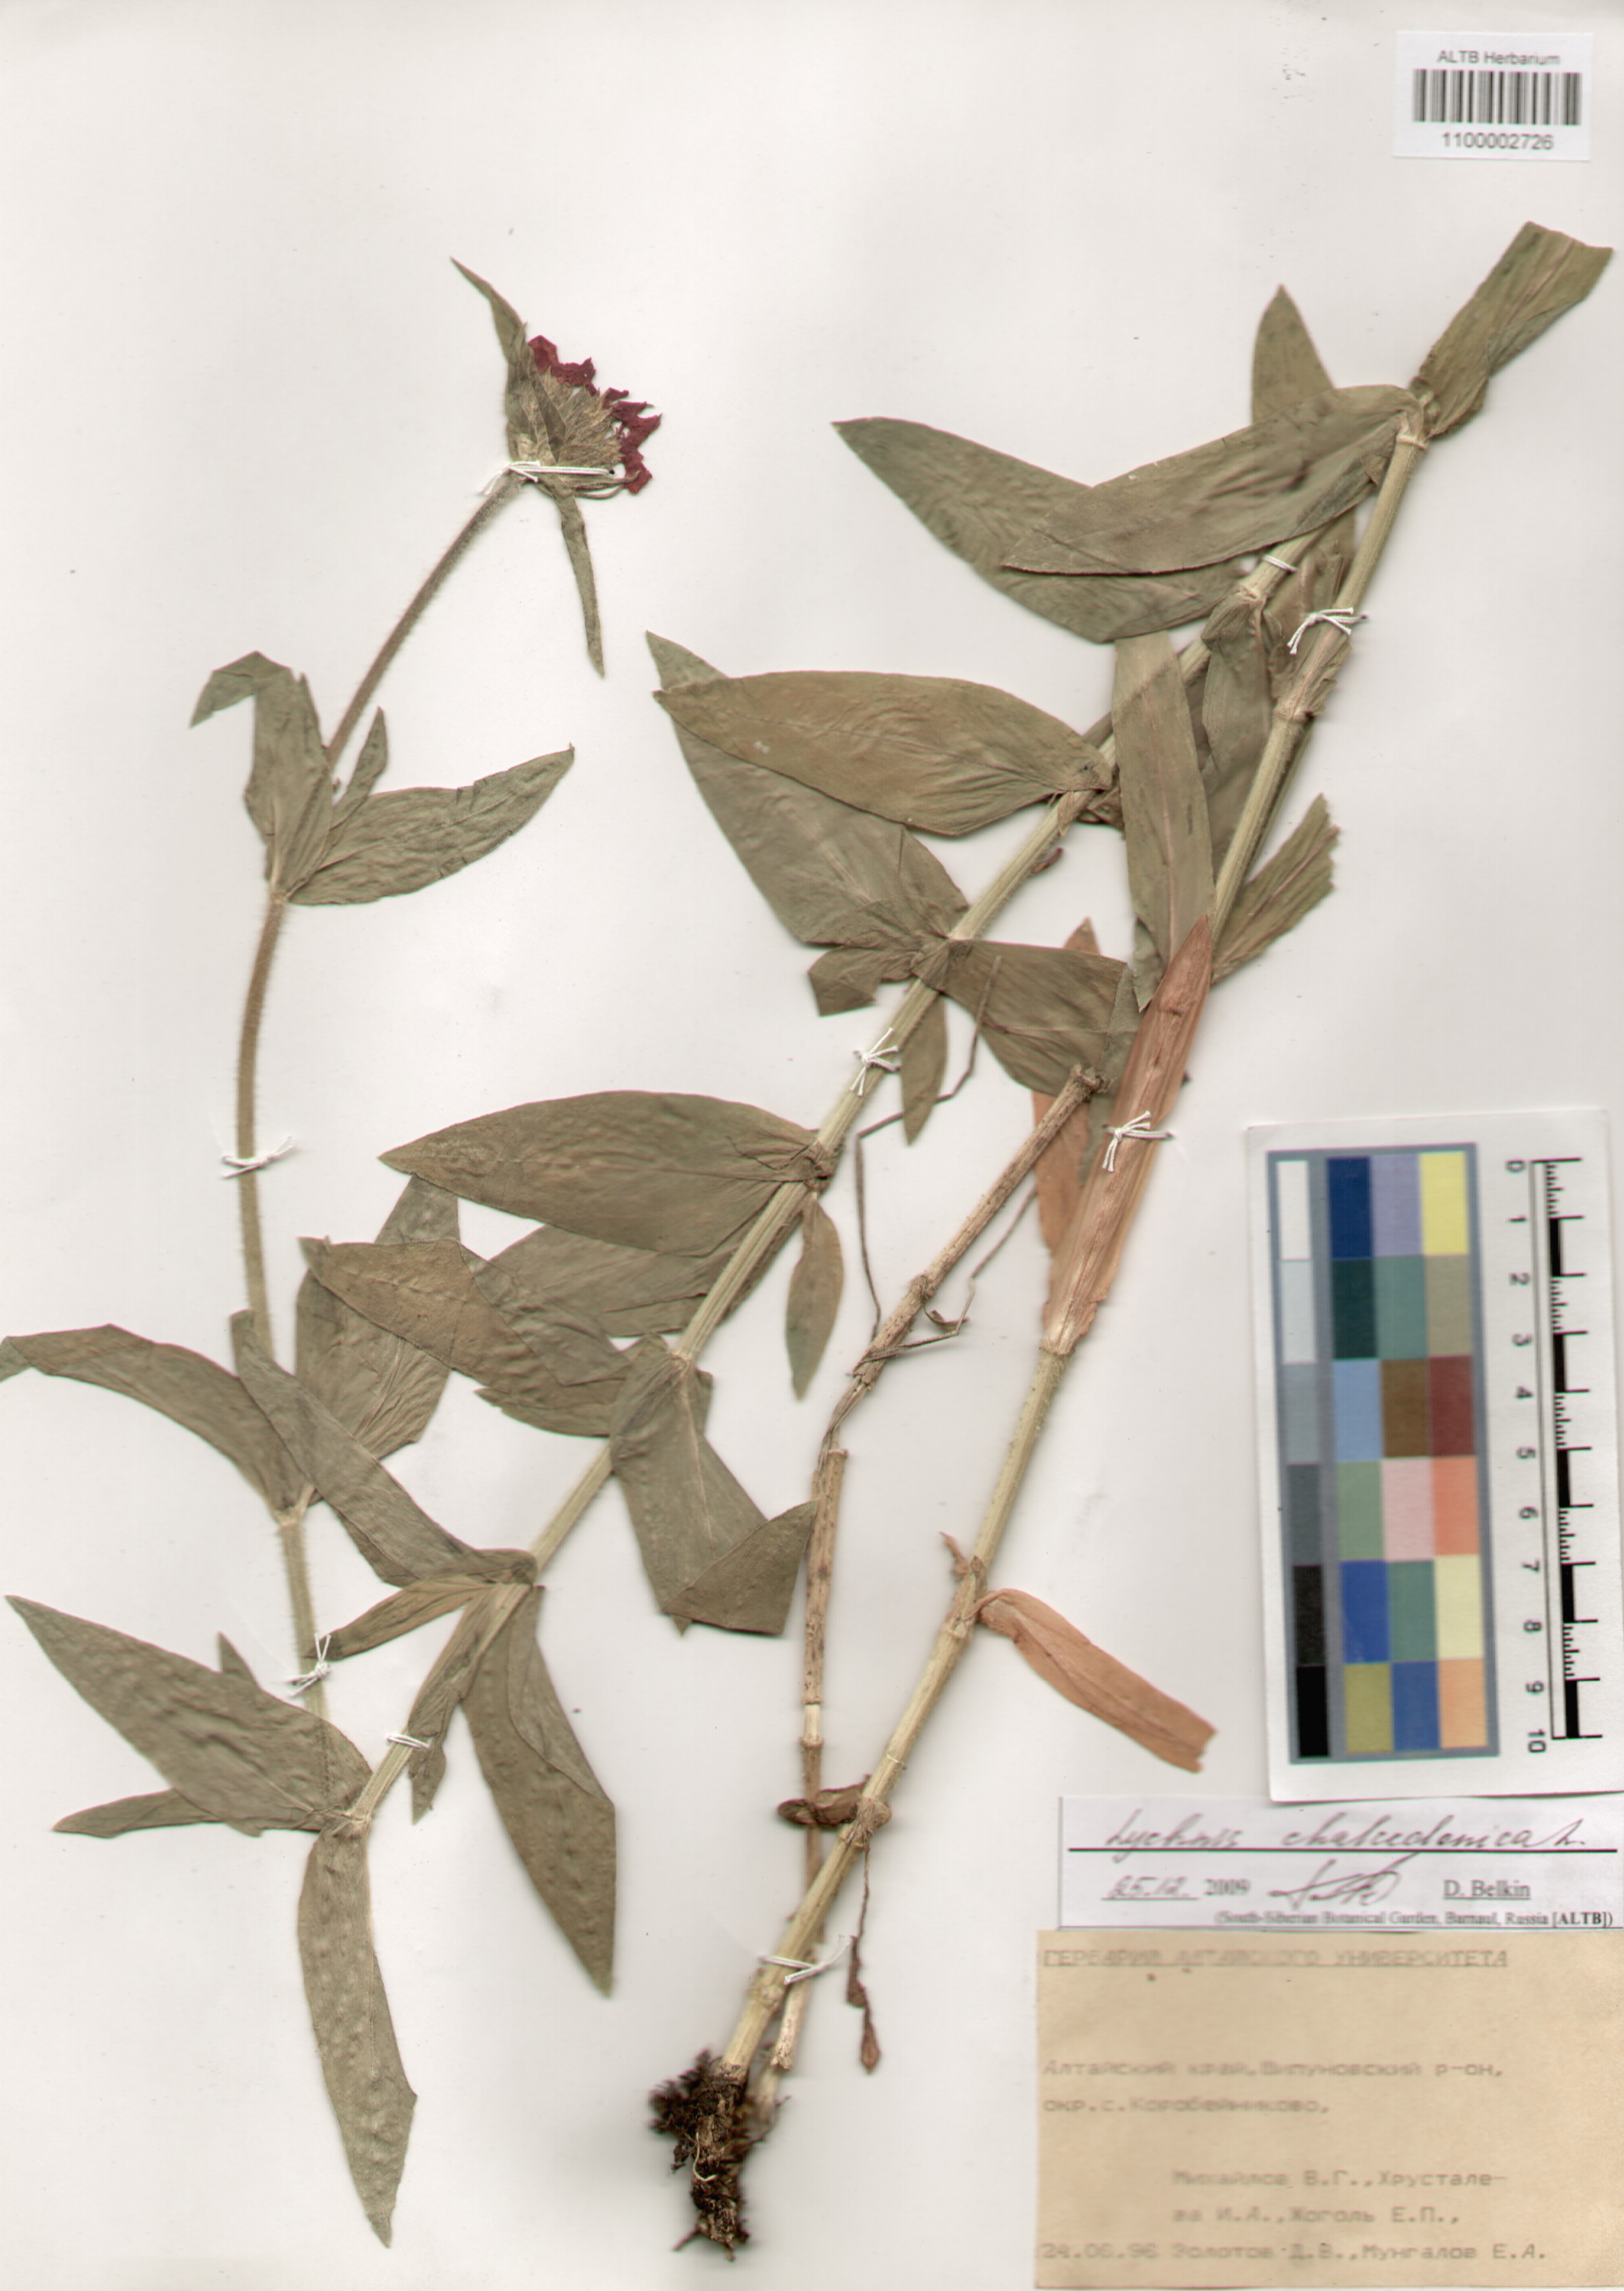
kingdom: Plantae
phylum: Tracheophyta
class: Magnoliopsida
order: Caryophyllales
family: Caryophyllaceae
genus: Silene
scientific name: Silene chalcedonica
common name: Maltese-cross
